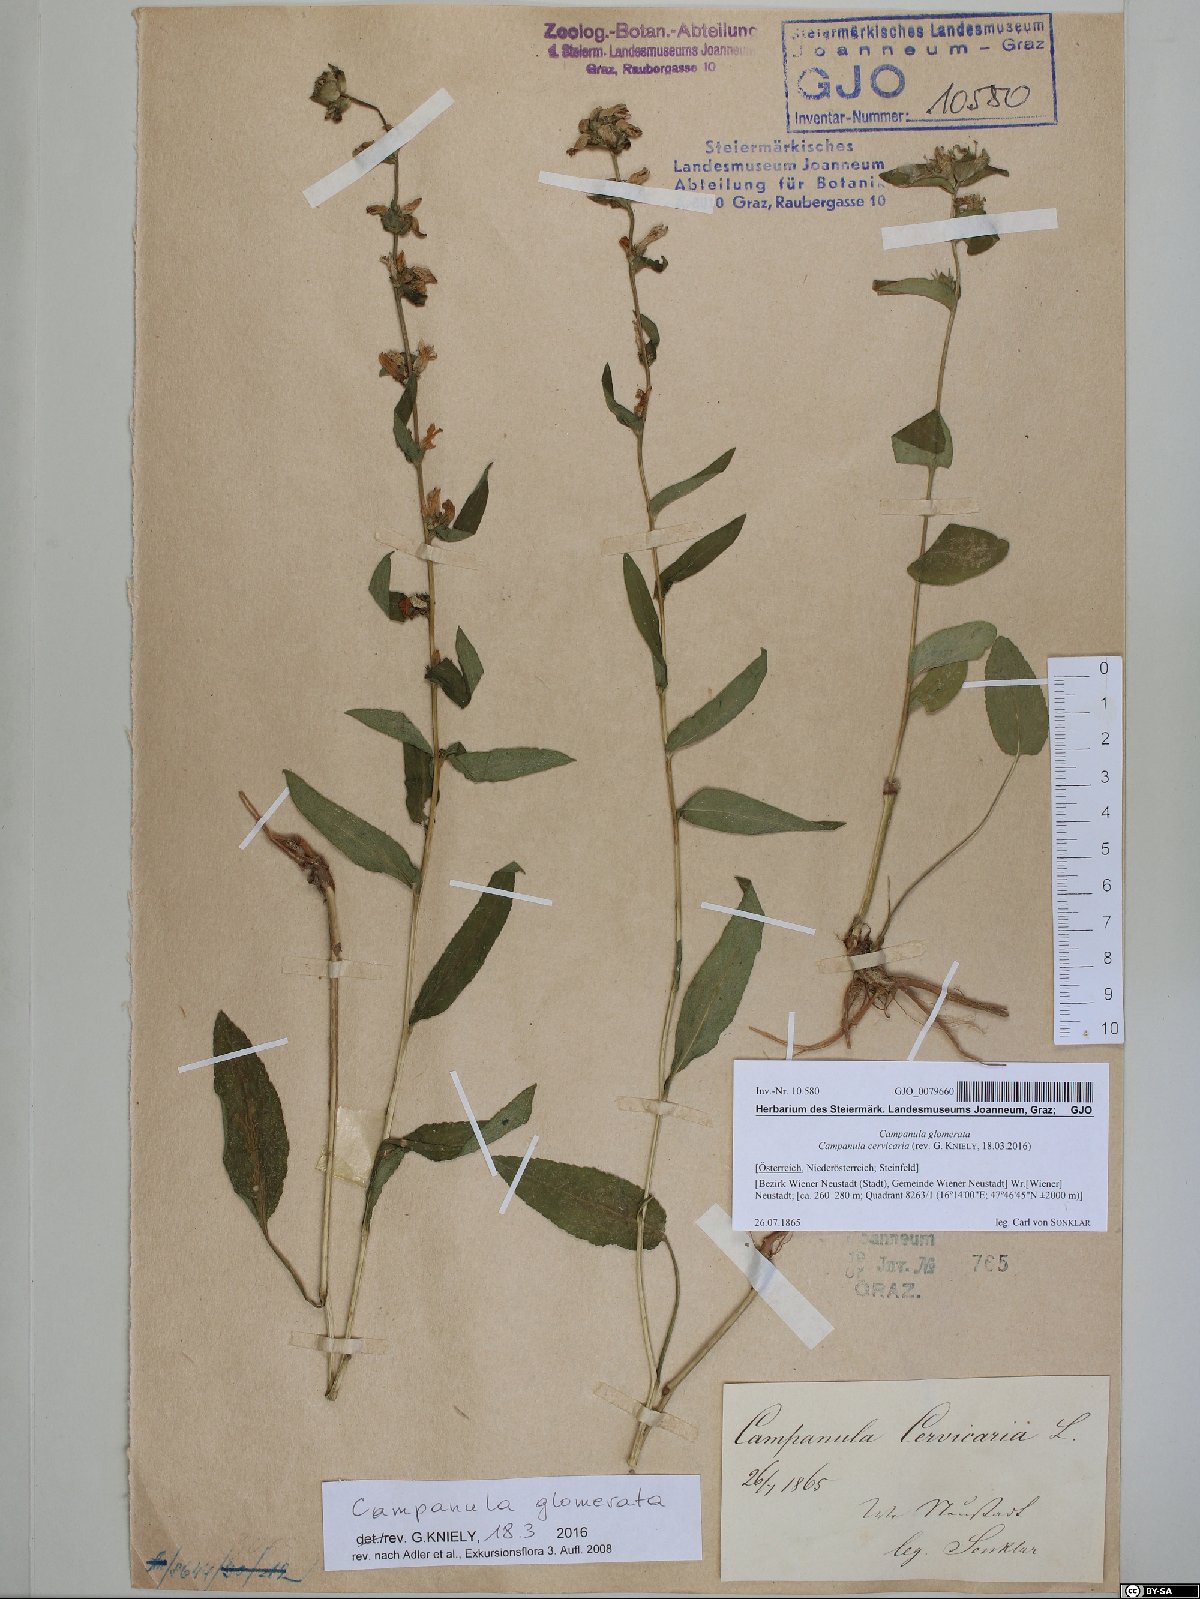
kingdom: Plantae
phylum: Tracheophyta
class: Magnoliopsida
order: Asterales
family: Campanulaceae
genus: Campanula
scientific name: Campanula glomerata
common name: Clustered bellflower
